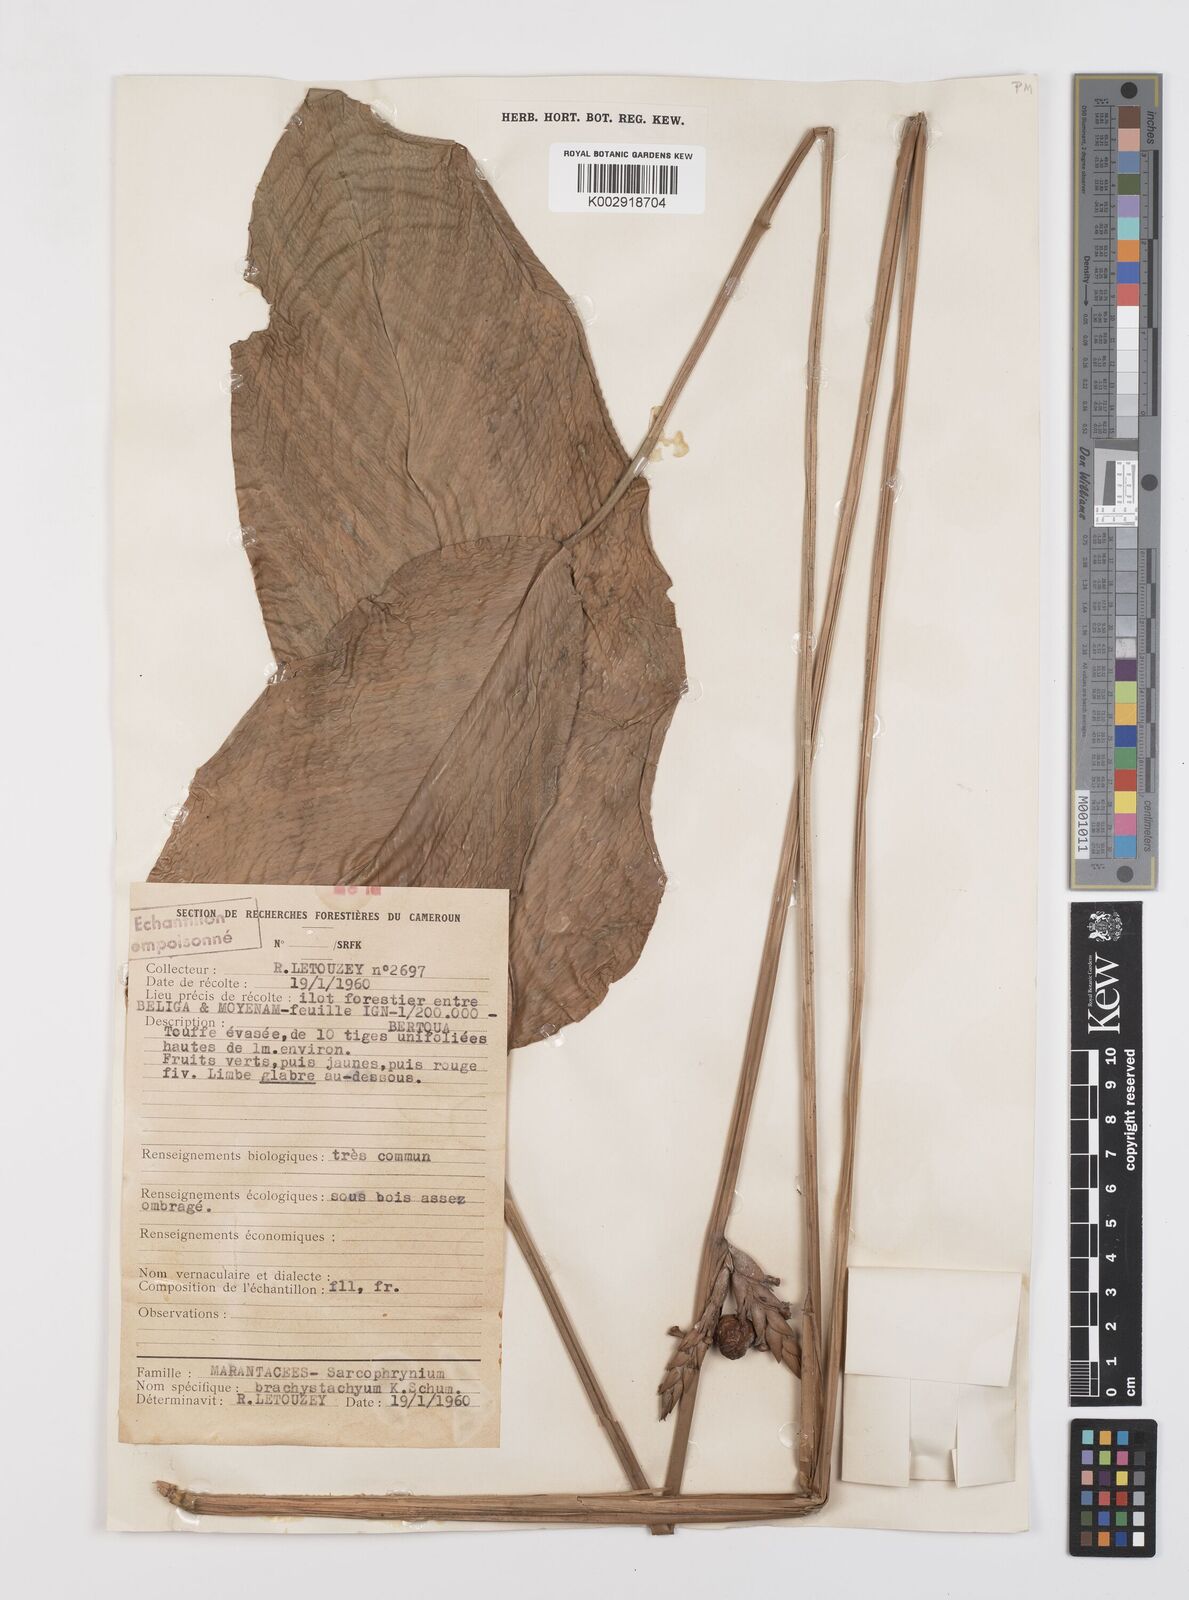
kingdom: Plantae
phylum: Tracheophyta
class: Liliopsida
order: Zingiberales
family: Marantaceae
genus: Sarcophrynium
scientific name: Sarcophrynium brachystachyum
